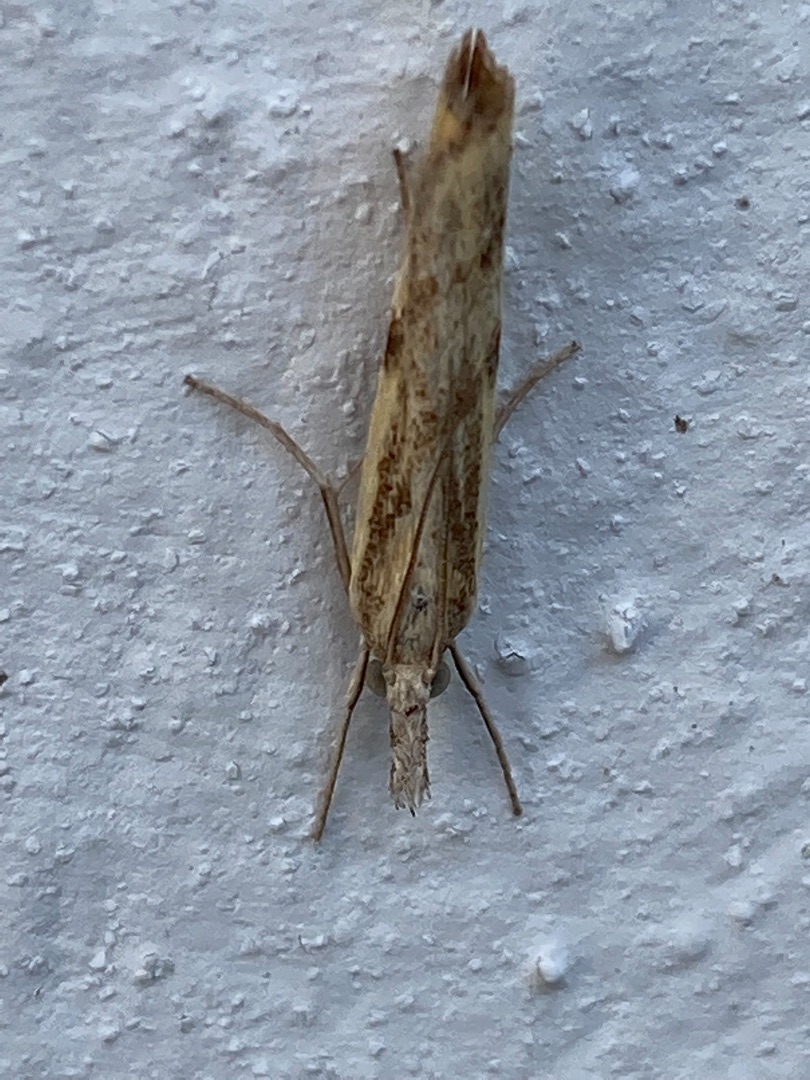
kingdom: Animalia
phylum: Arthropoda
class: Insecta
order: Lepidoptera
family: Crambidae
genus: Agriphila
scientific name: Agriphila inquinatella
